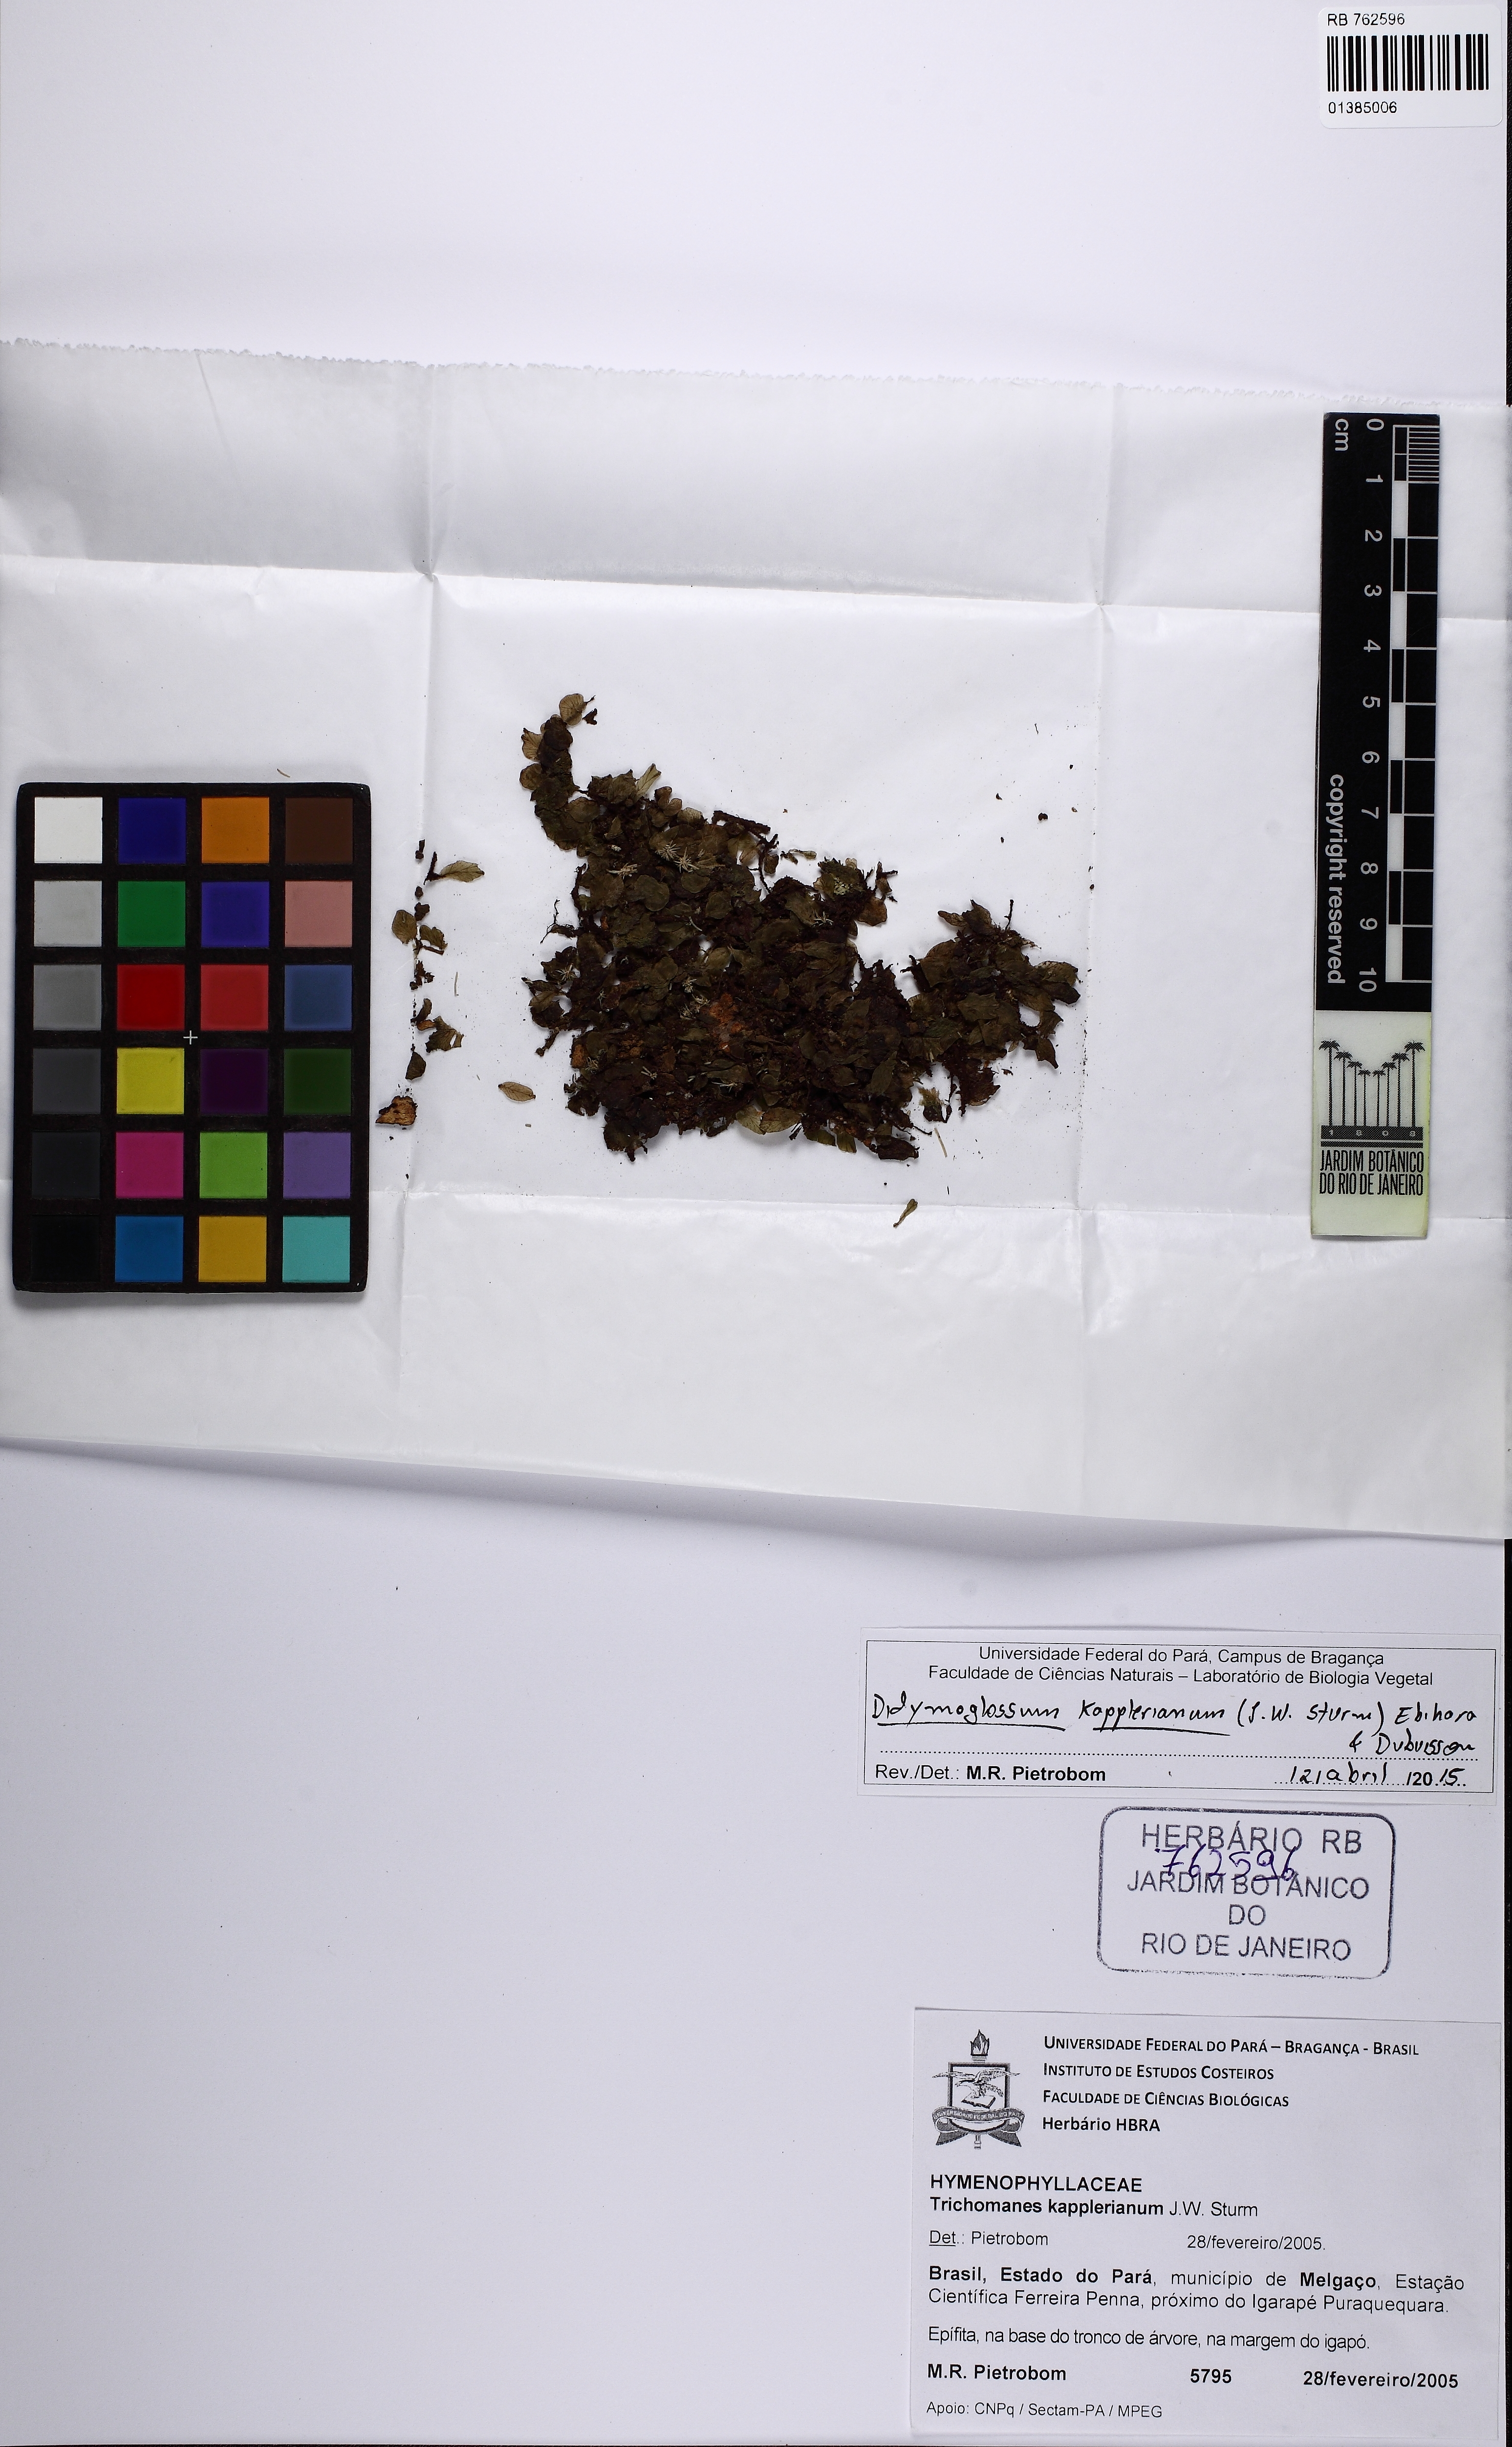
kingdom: Plantae
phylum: Tracheophyta
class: Polypodiopsida
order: Hymenophyllales
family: Hymenophyllaceae
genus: Didymoglossum
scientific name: Didymoglossum kapplerianum
